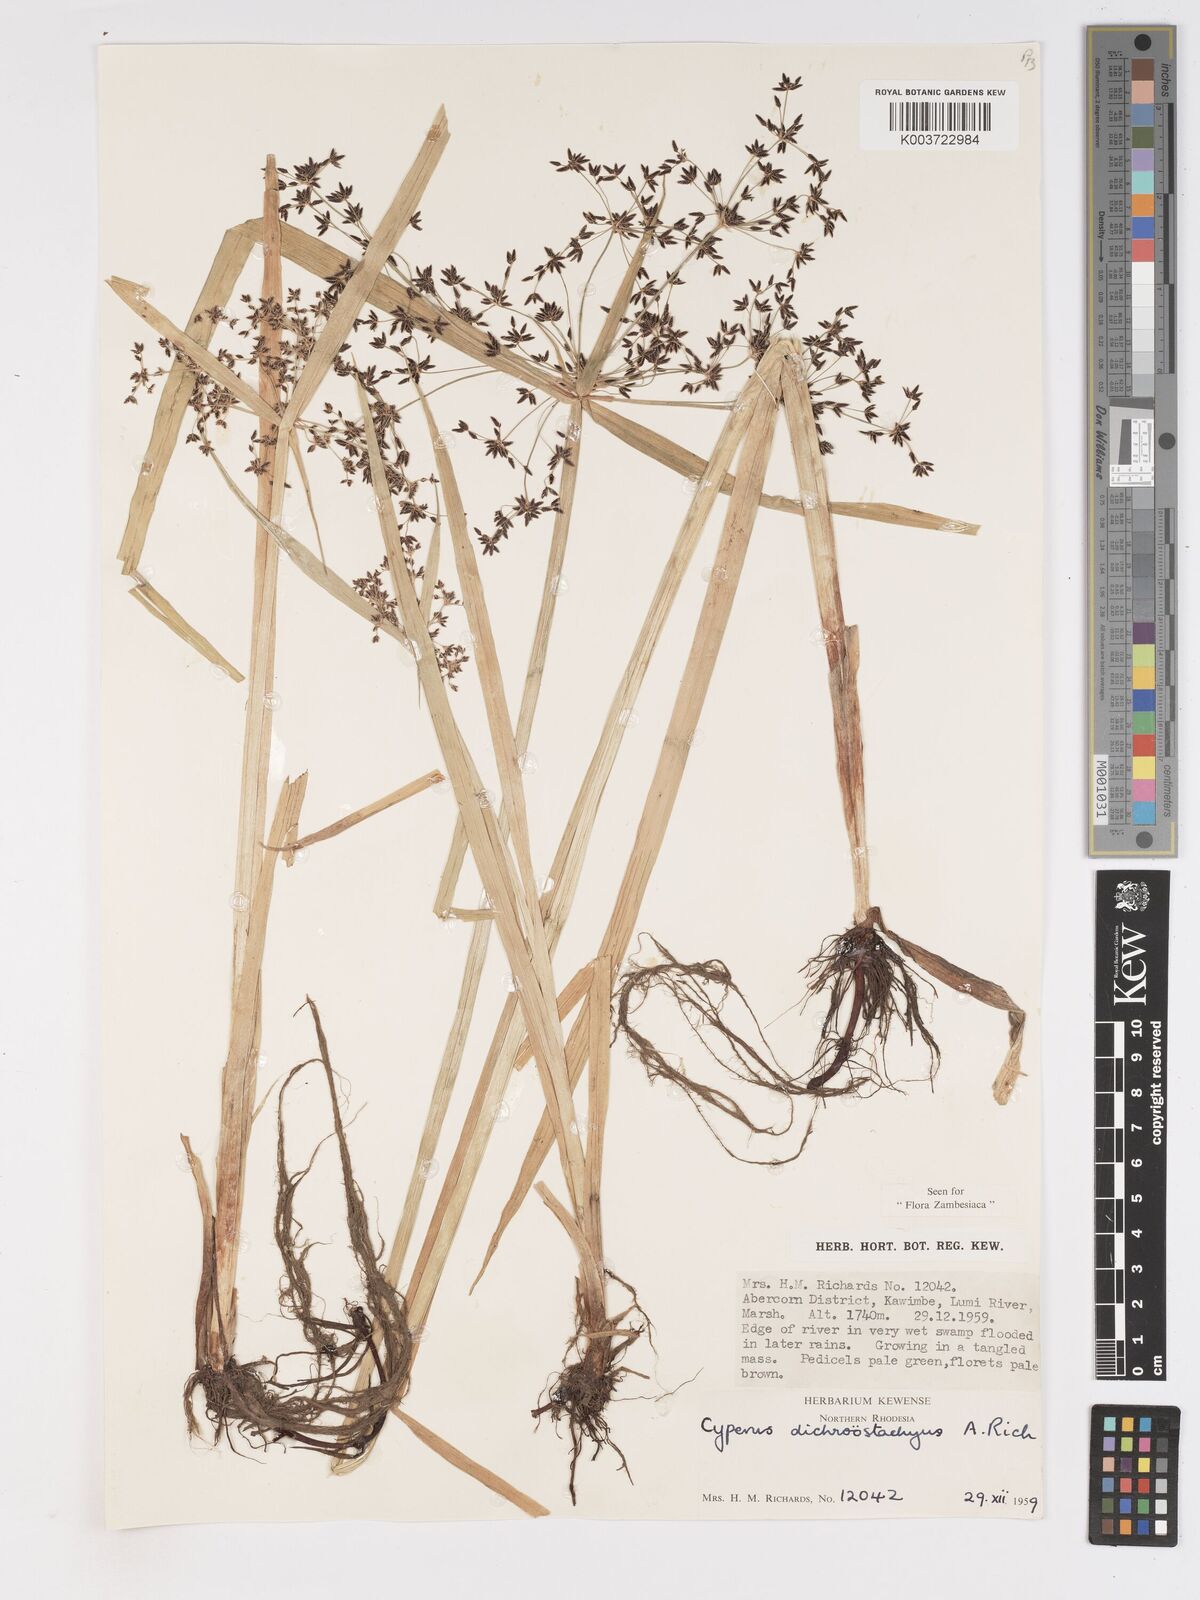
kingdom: Plantae
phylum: Tracheophyta
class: Liliopsida
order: Poales
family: Cyperaceae
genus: Cyperus
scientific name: Cyperus dichrostachyus
